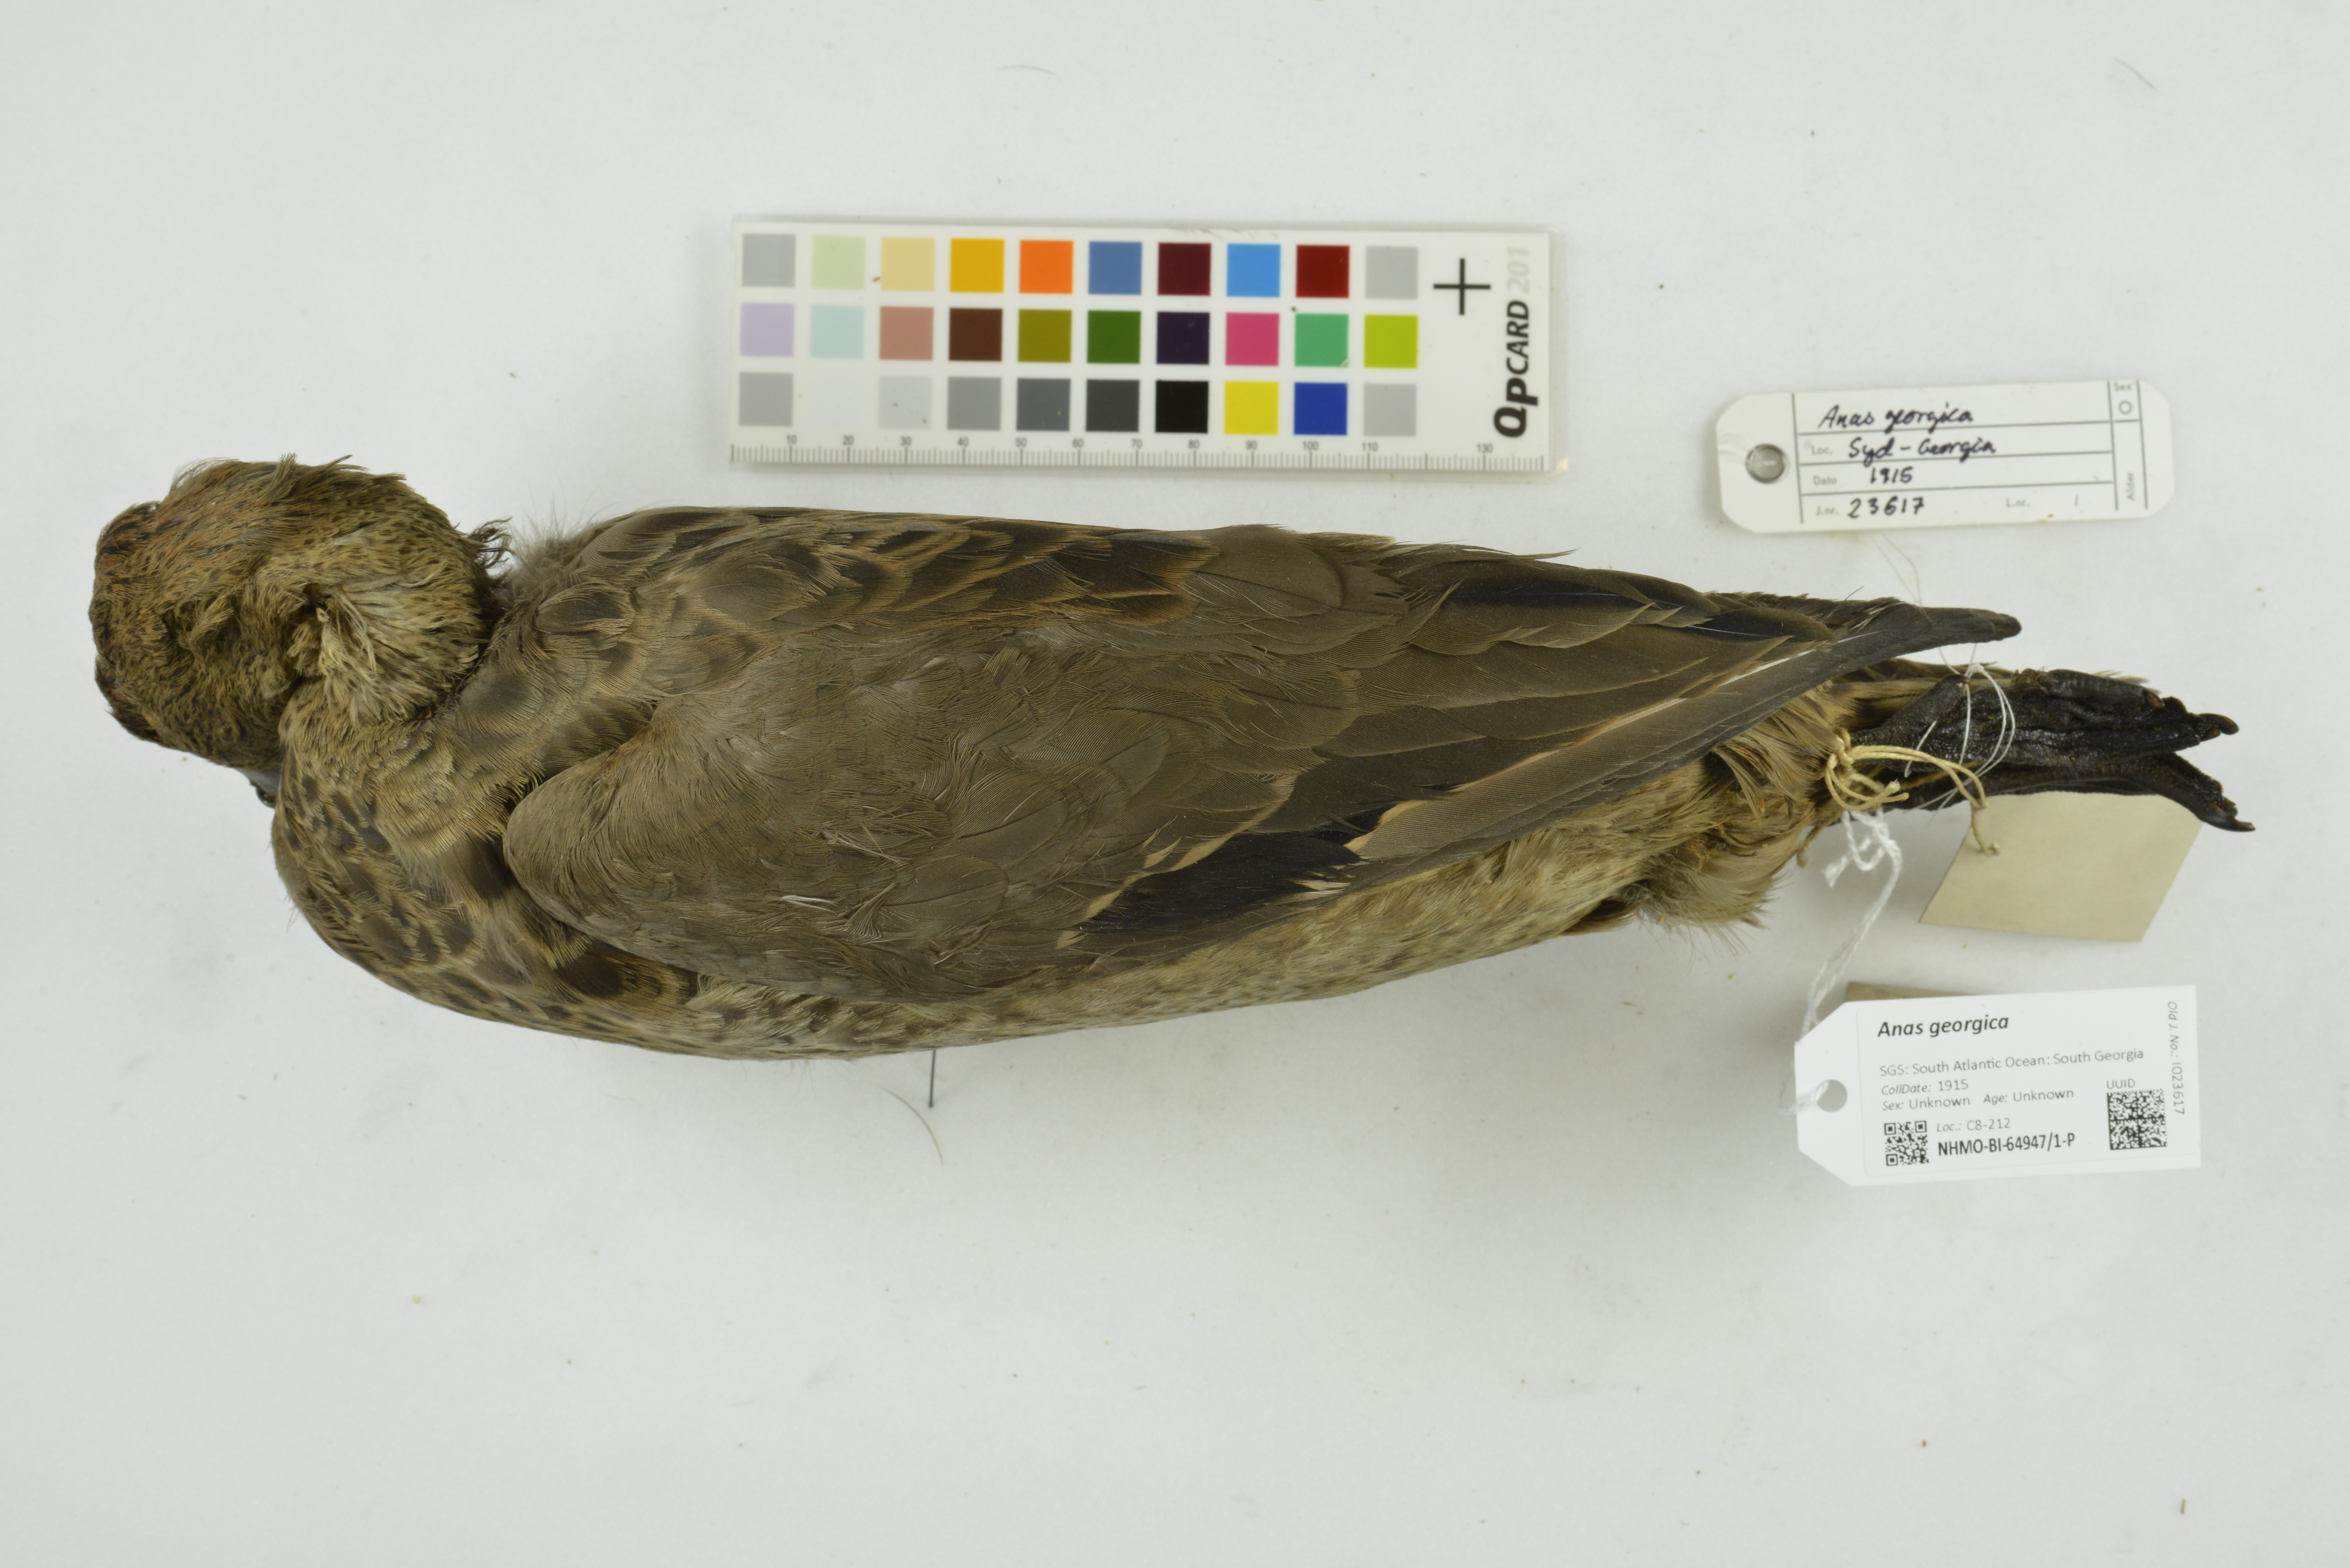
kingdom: Animalia
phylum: Chordata
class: Aves
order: Anseriformes
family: Anatidae
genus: Anas
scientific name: Anas georgica
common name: Yellow-billed pintail
